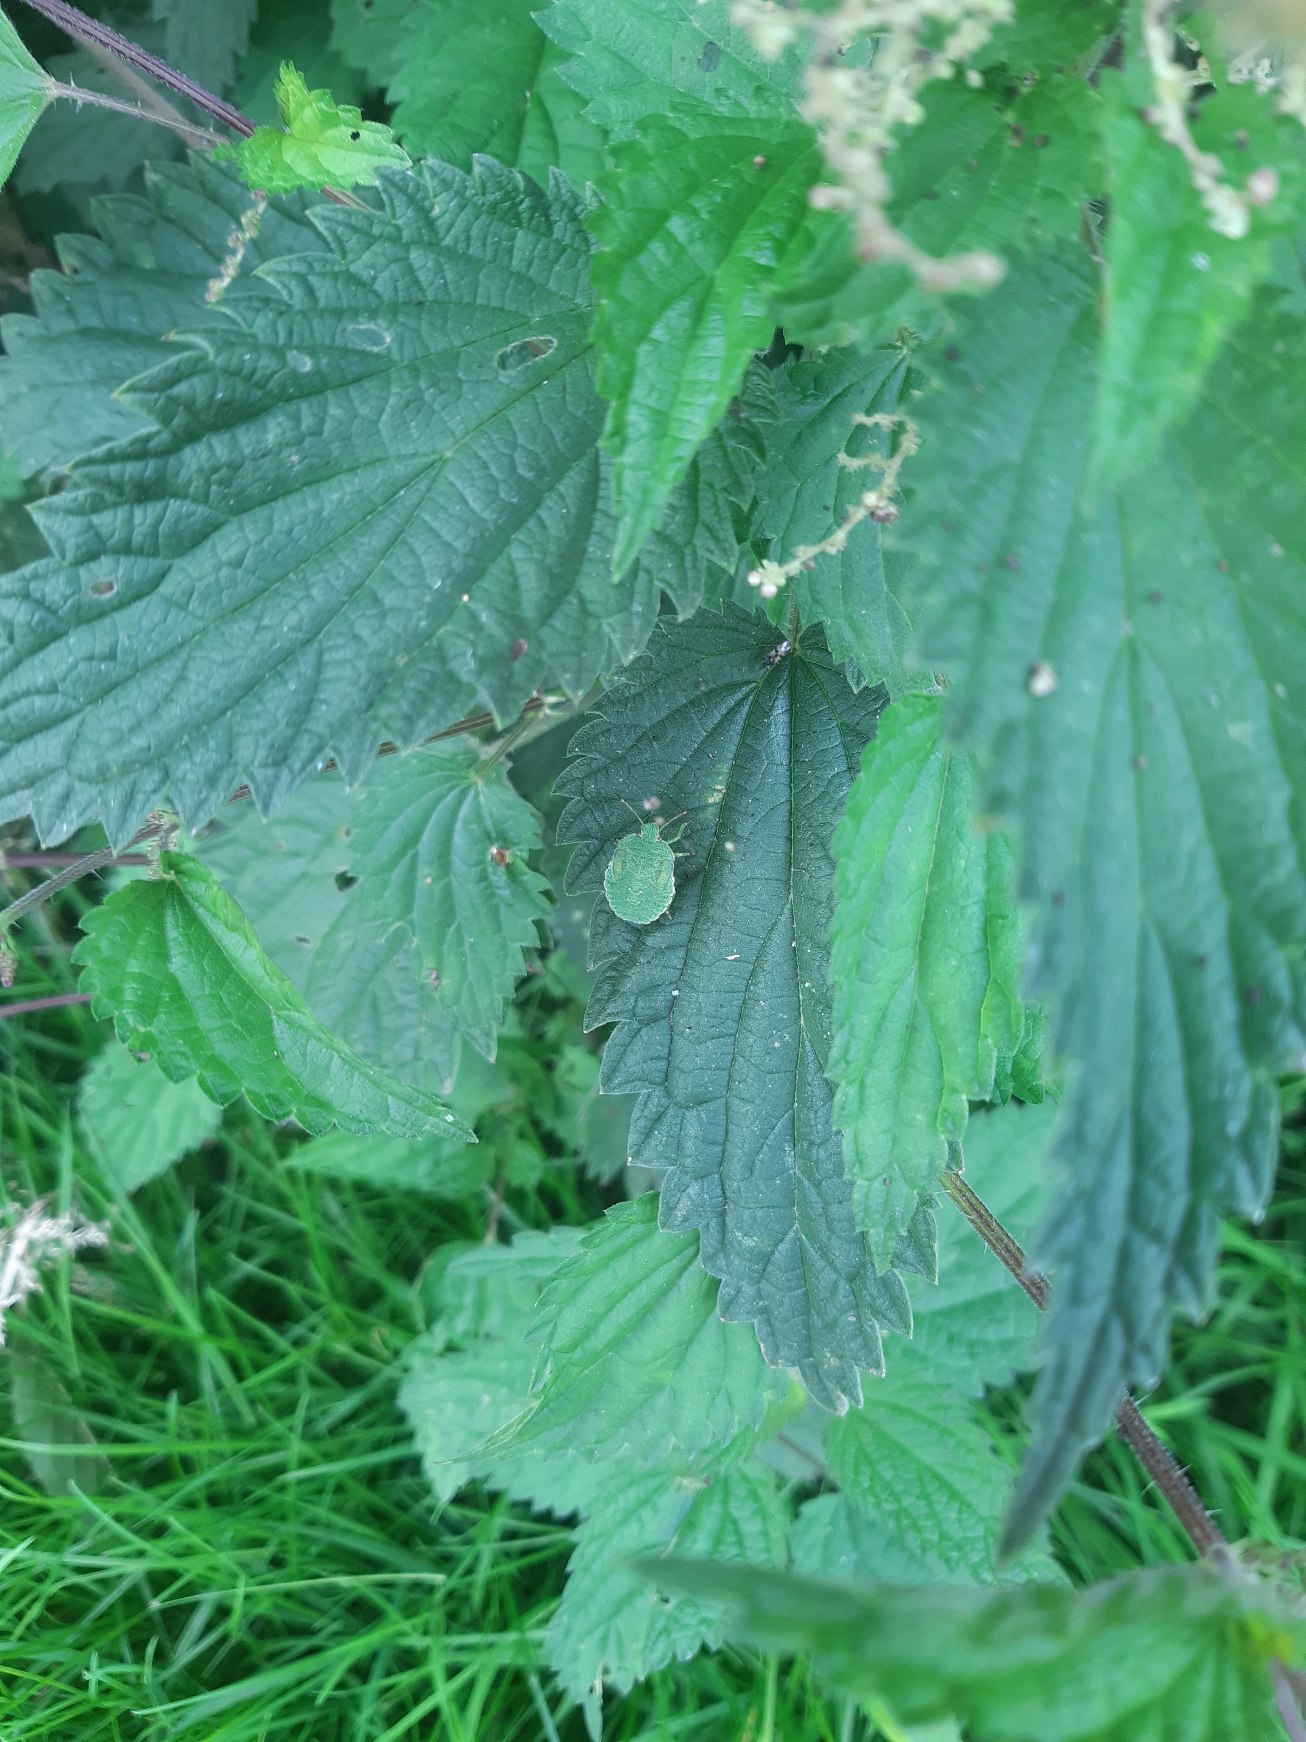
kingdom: Animalia
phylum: Arthropoda
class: Insecta
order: Hemiptera
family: Pentatomidae
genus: Palomena
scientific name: Palomena prasina
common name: Grøn bredtæge
